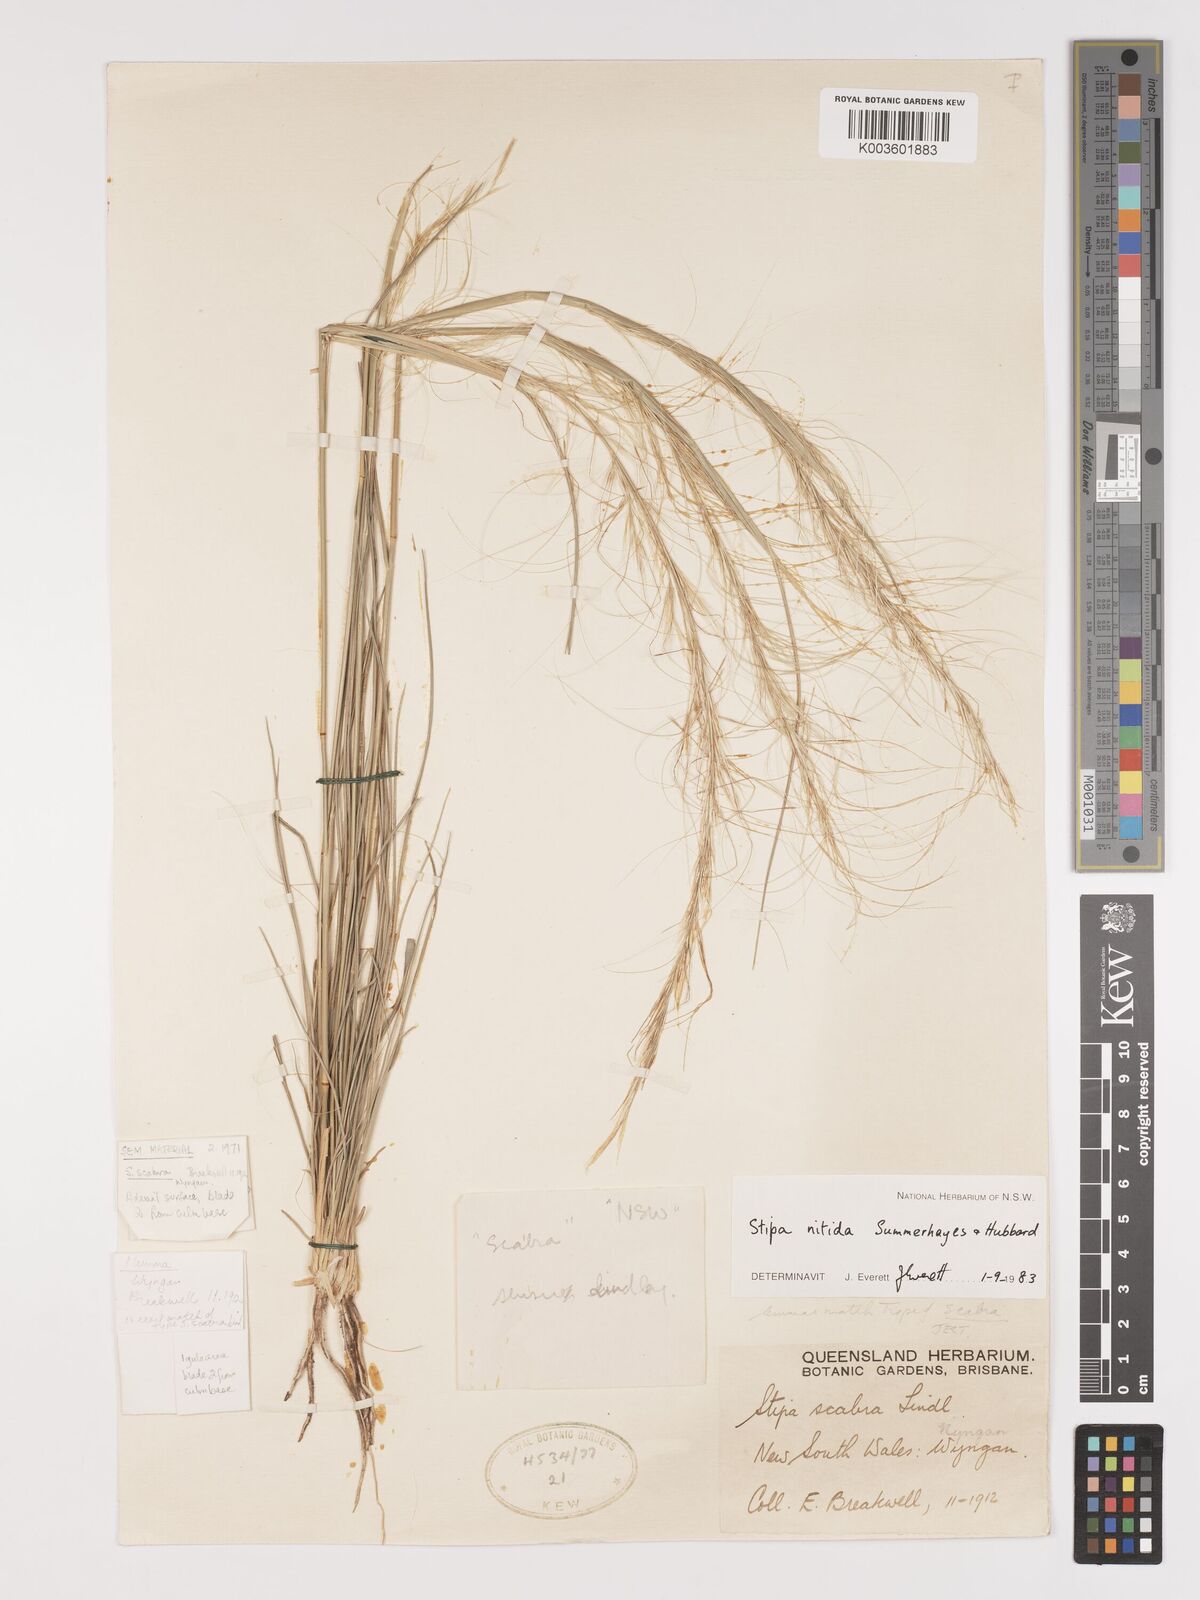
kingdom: Plantae
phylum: Tracheophyta
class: Liliopsida
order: Poales
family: Poaceae
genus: Austrostipa
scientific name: Austrostipa nitida
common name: Balcarra grass
